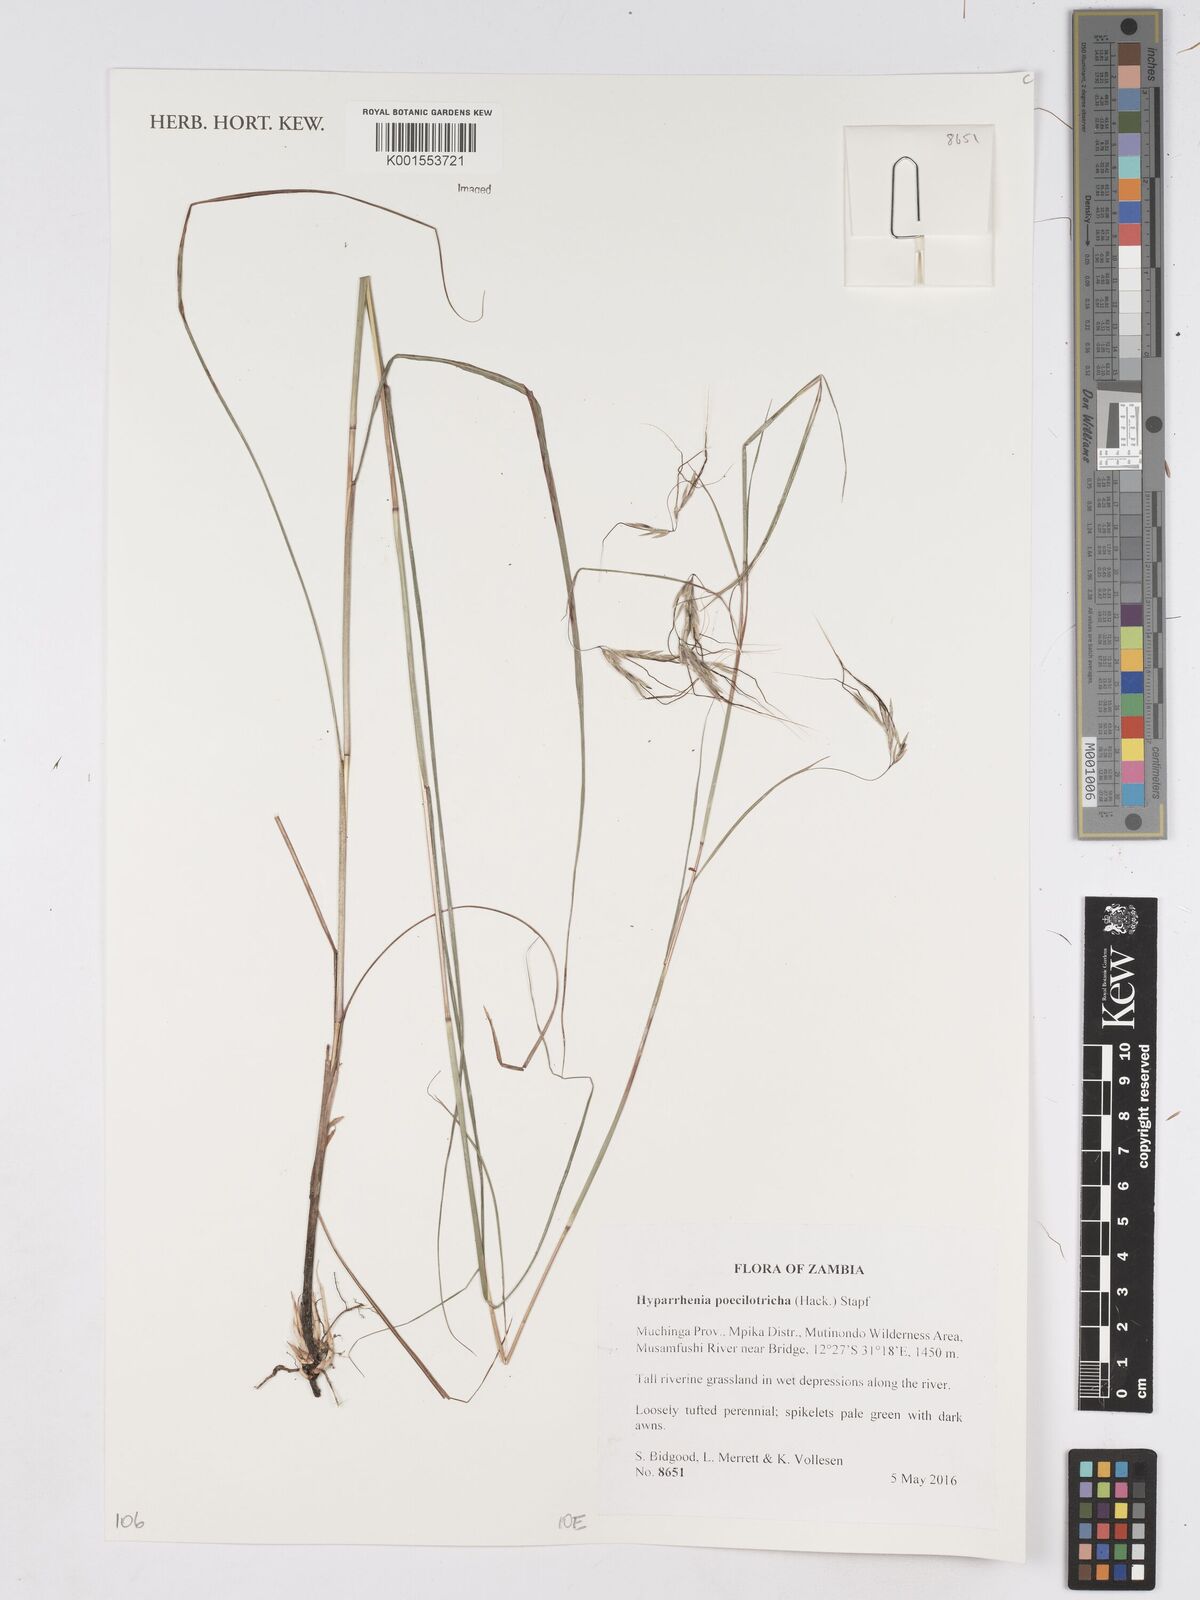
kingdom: Plantae
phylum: Tracheophyta
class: Liliopsida
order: Poales
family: Poaceae
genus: Hyparrhenia
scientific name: Hyparrhenia poecilotricha
